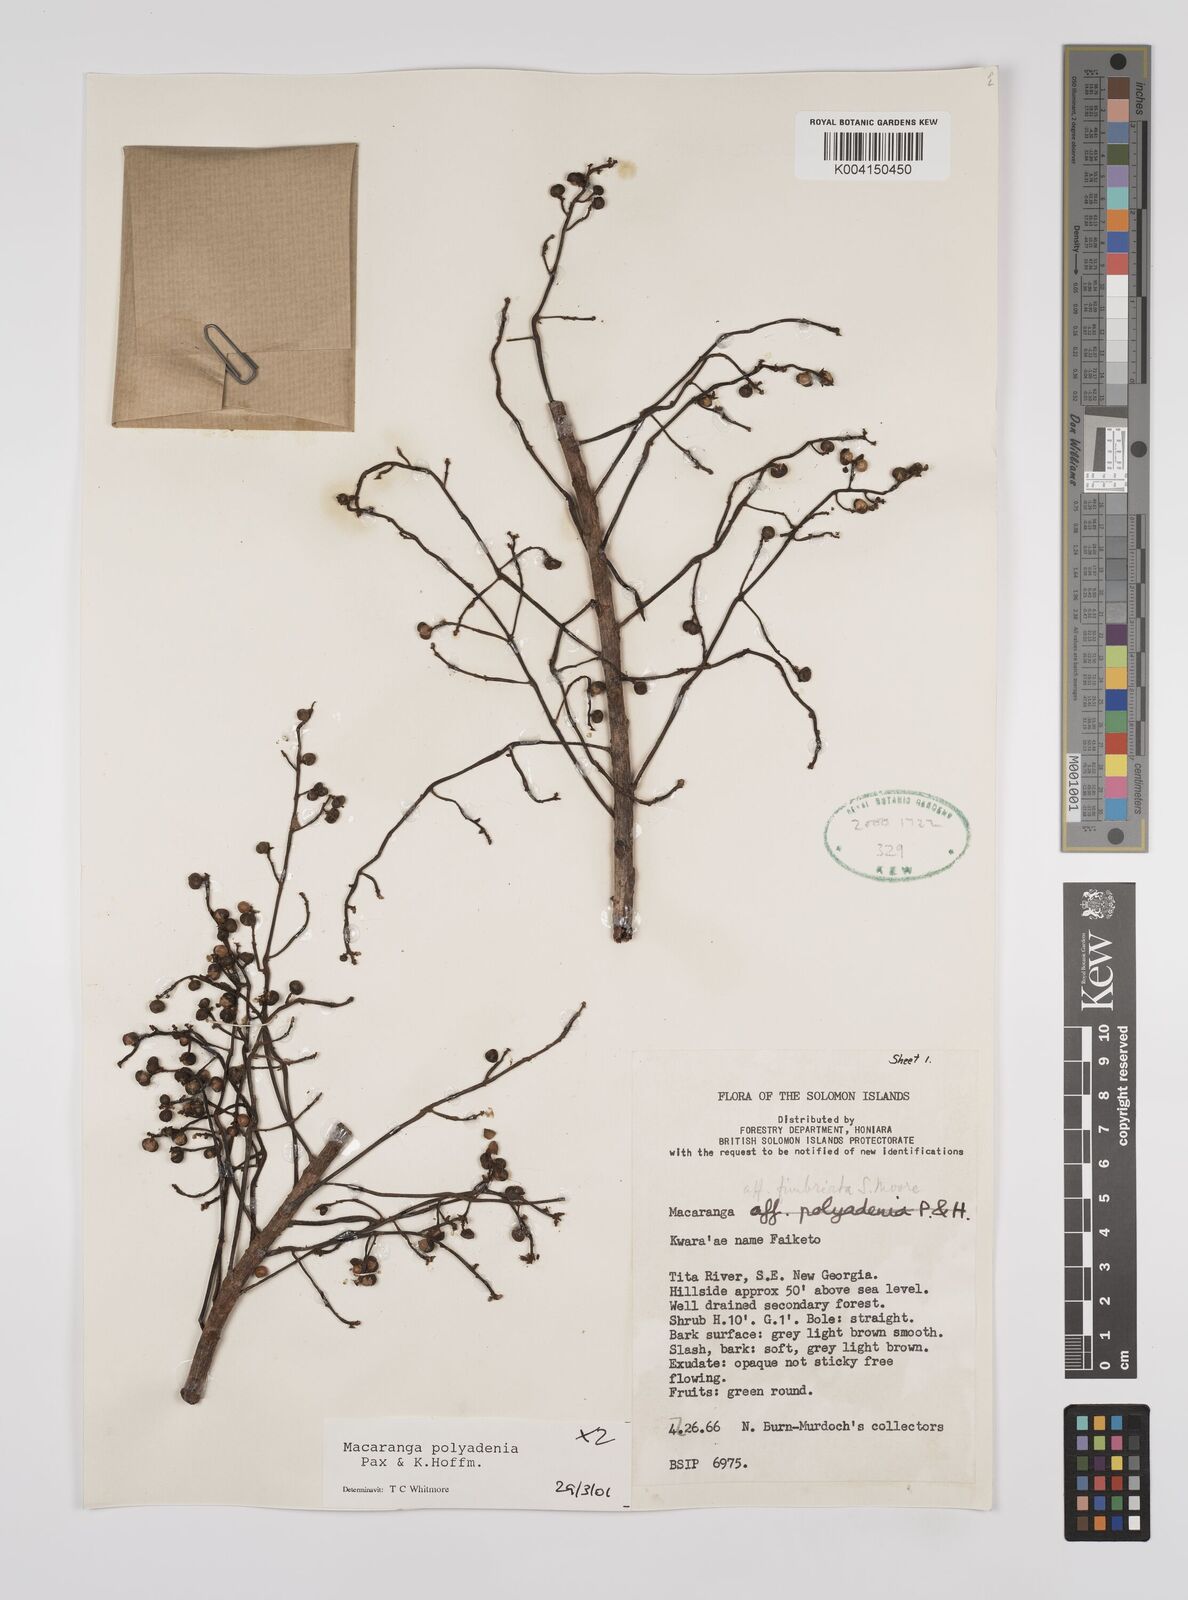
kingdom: Plantae
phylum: Tracheophyta
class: Magnoliopsida
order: Malpighiales
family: Euphorbiaceae
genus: Macaranga
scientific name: Macaranga polyadenia
